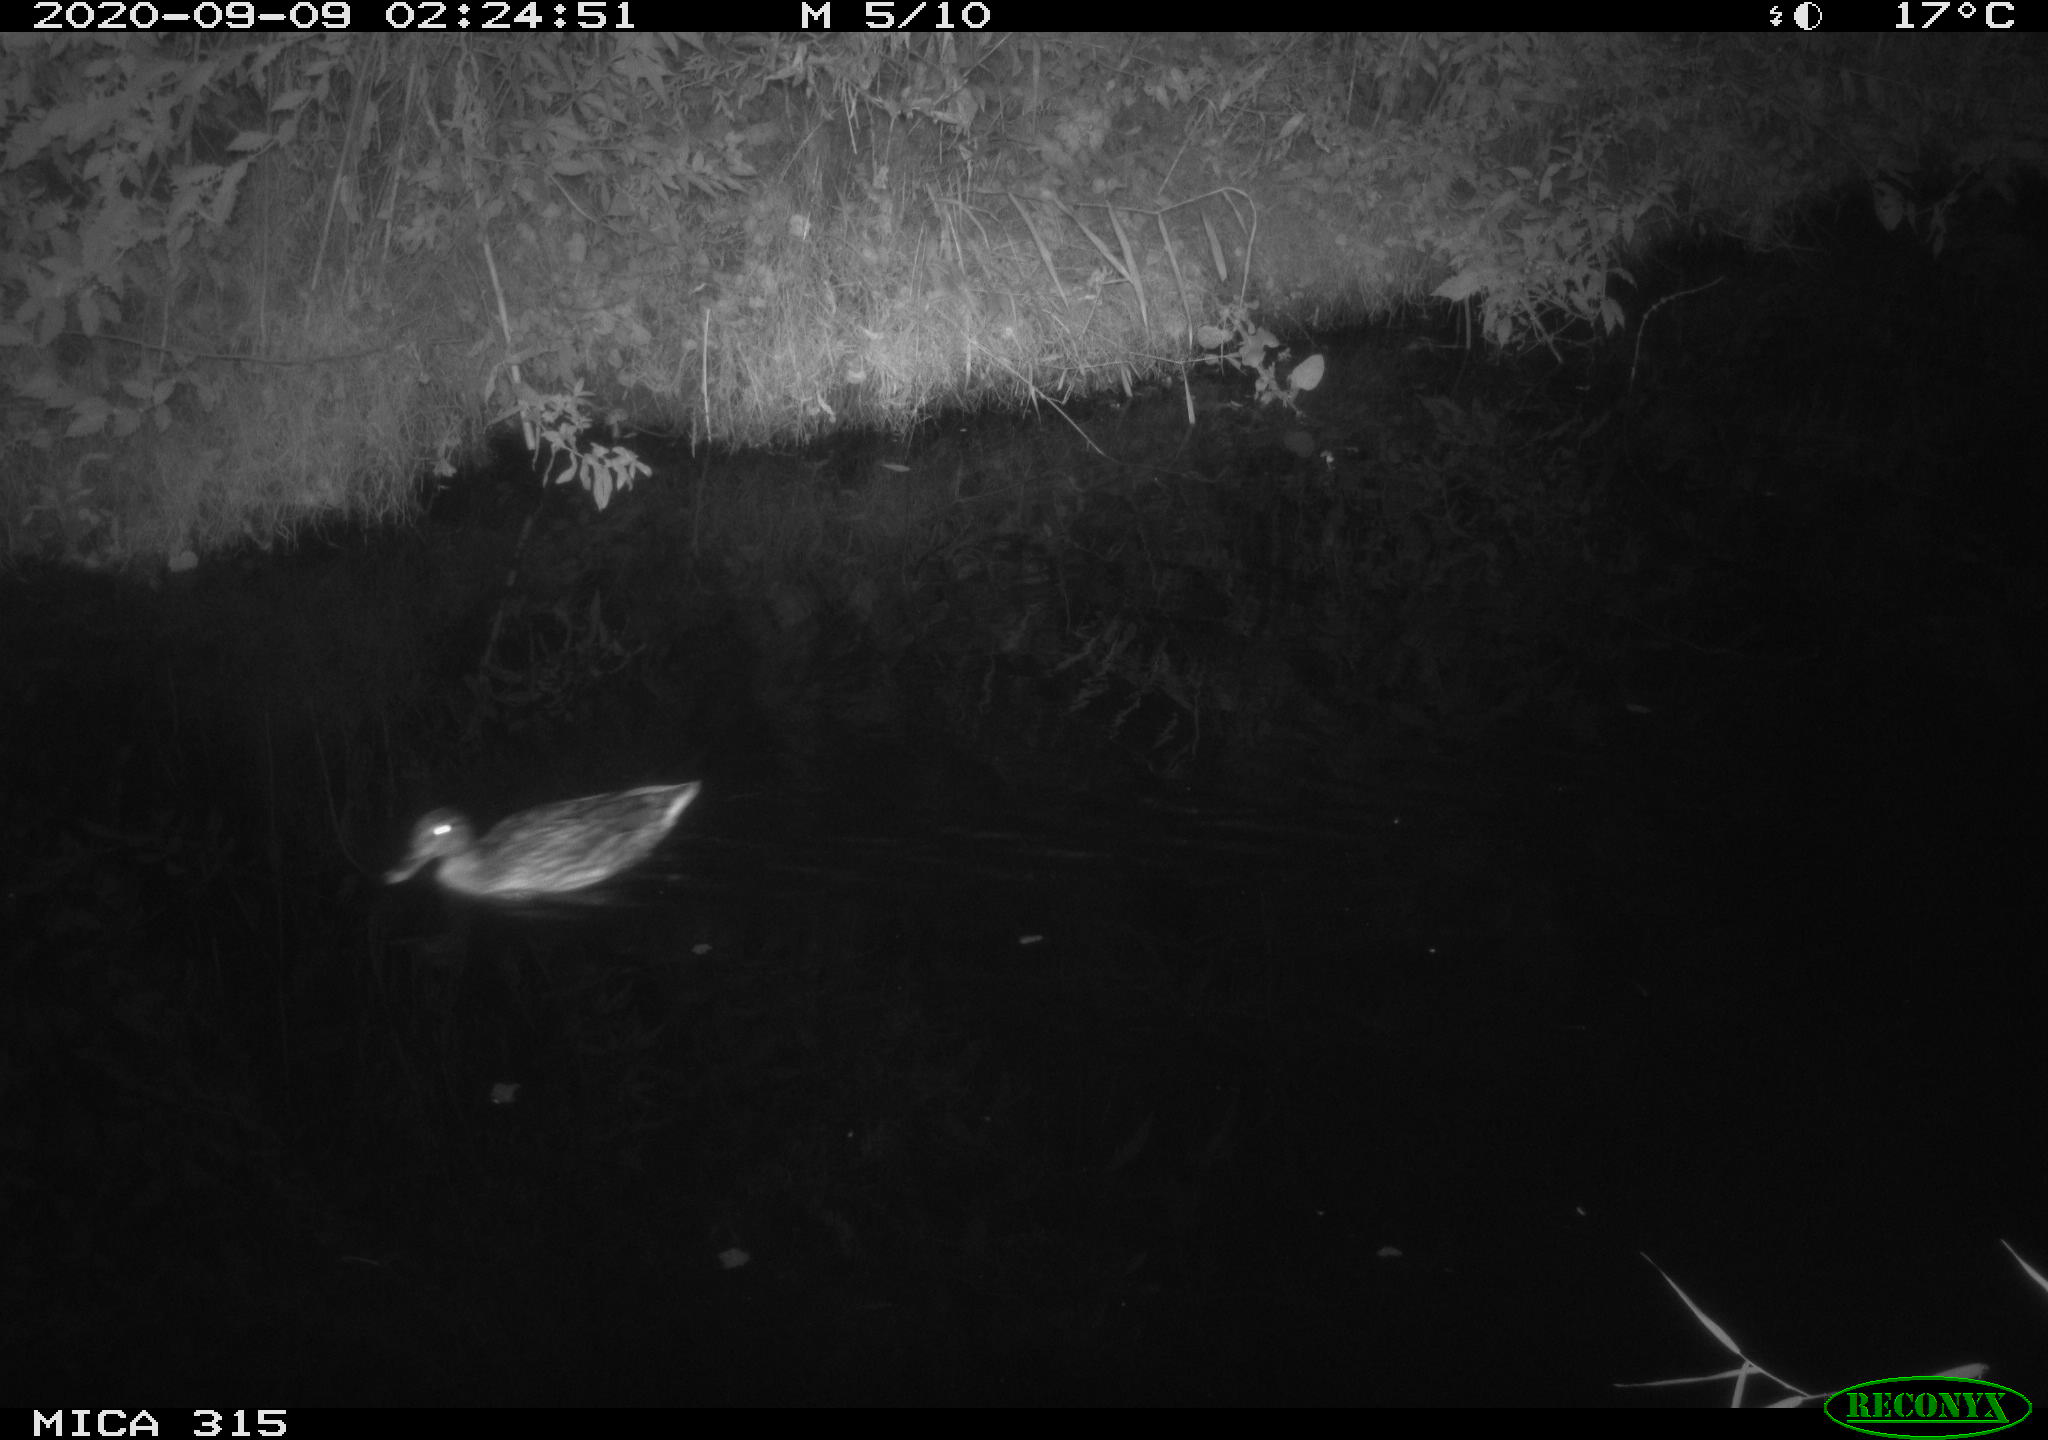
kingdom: Animalia
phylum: Chordata
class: Aves
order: Anseriformes
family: Anatidae
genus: Anas
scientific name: Anas platyrhynchos
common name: Mallard
